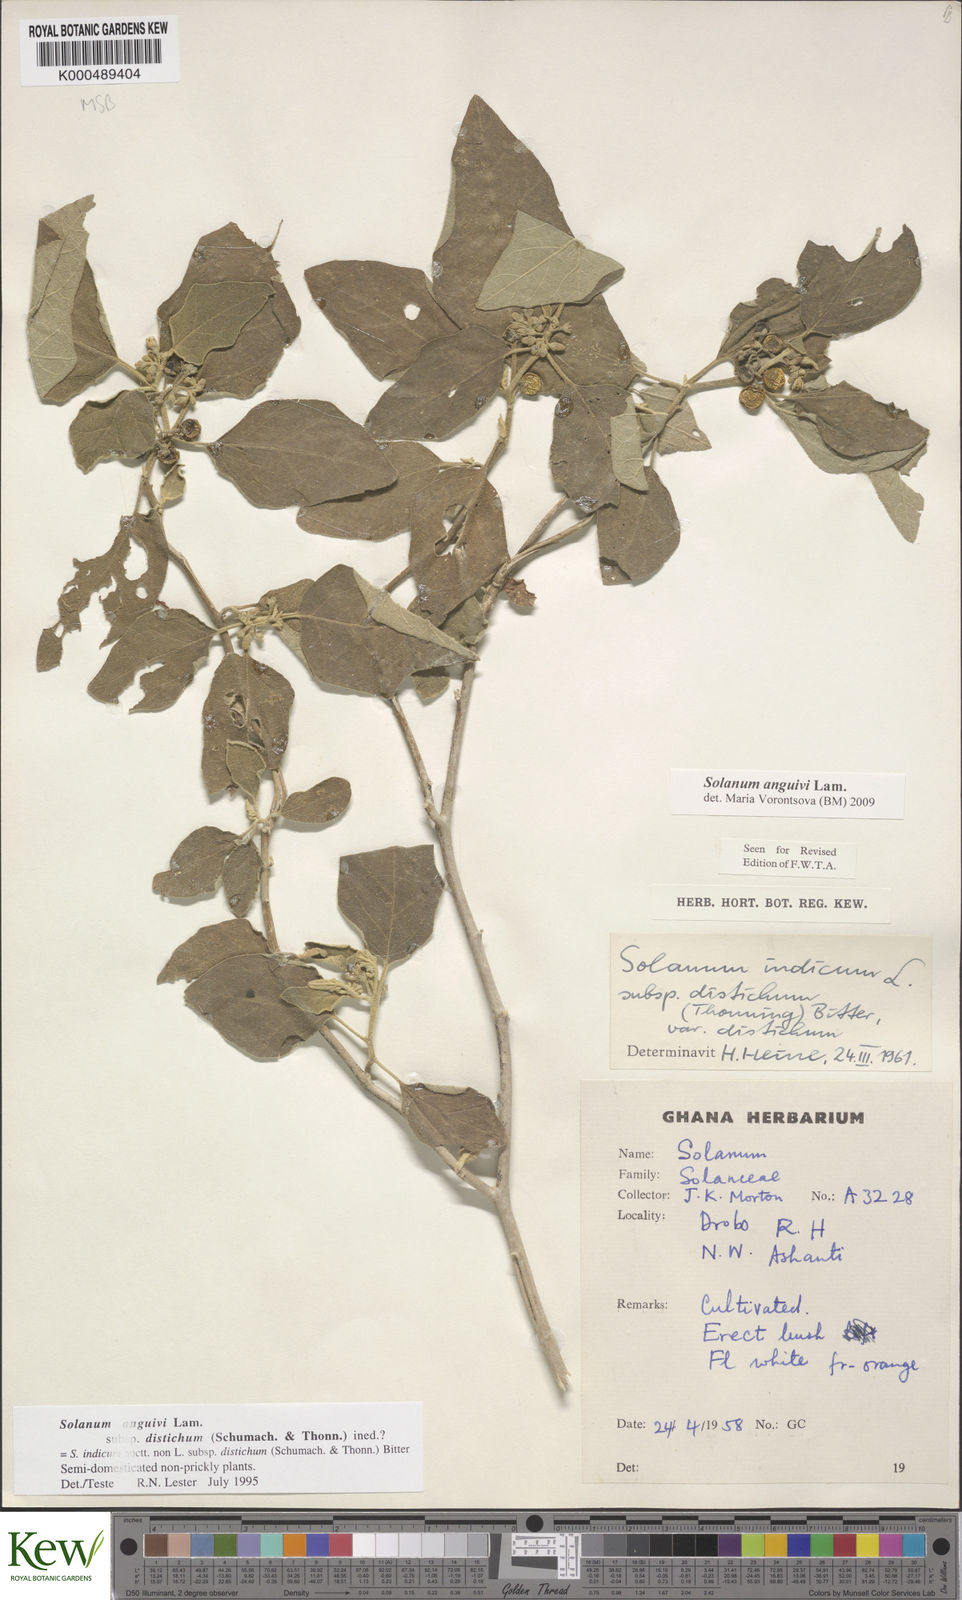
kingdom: Plantae
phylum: Tracheophyta
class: Magnoliopsida
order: Solanales
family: Solanaceae
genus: Solanum
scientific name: Solanum anguivi
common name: Forest bitterberry
